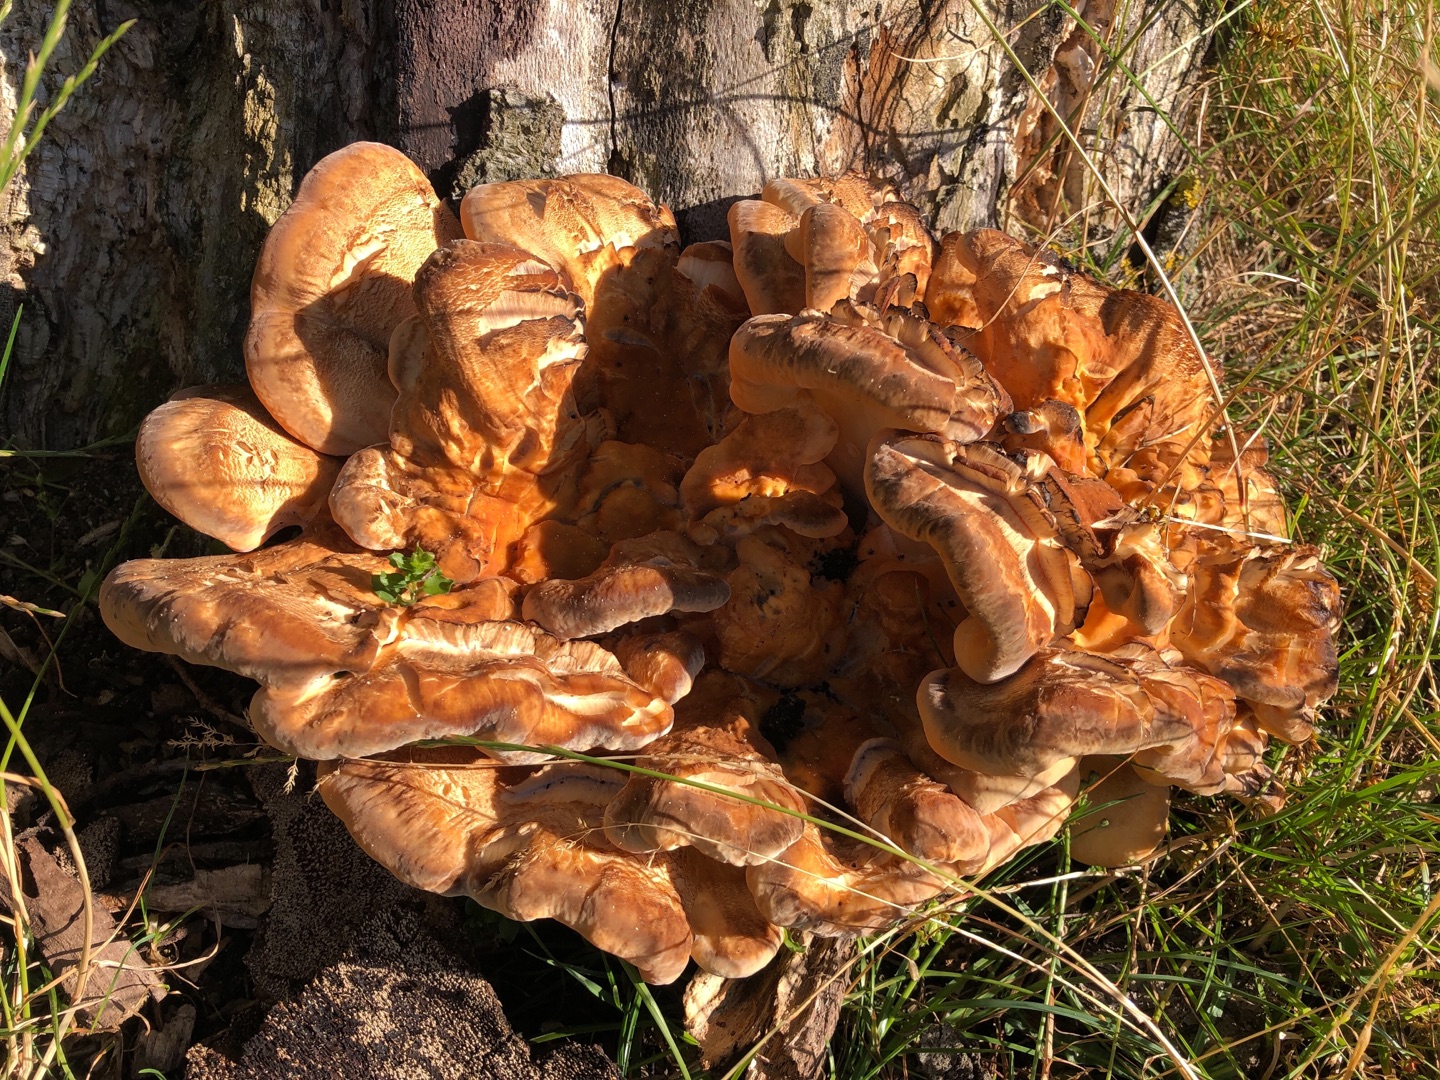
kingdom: Fungi
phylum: Basidiomycota
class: Agaricomycetes
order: Polyporales
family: Meripilaceae
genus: Meripilus
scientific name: Meripilus giganteus
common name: Kæmpeporesvamp
